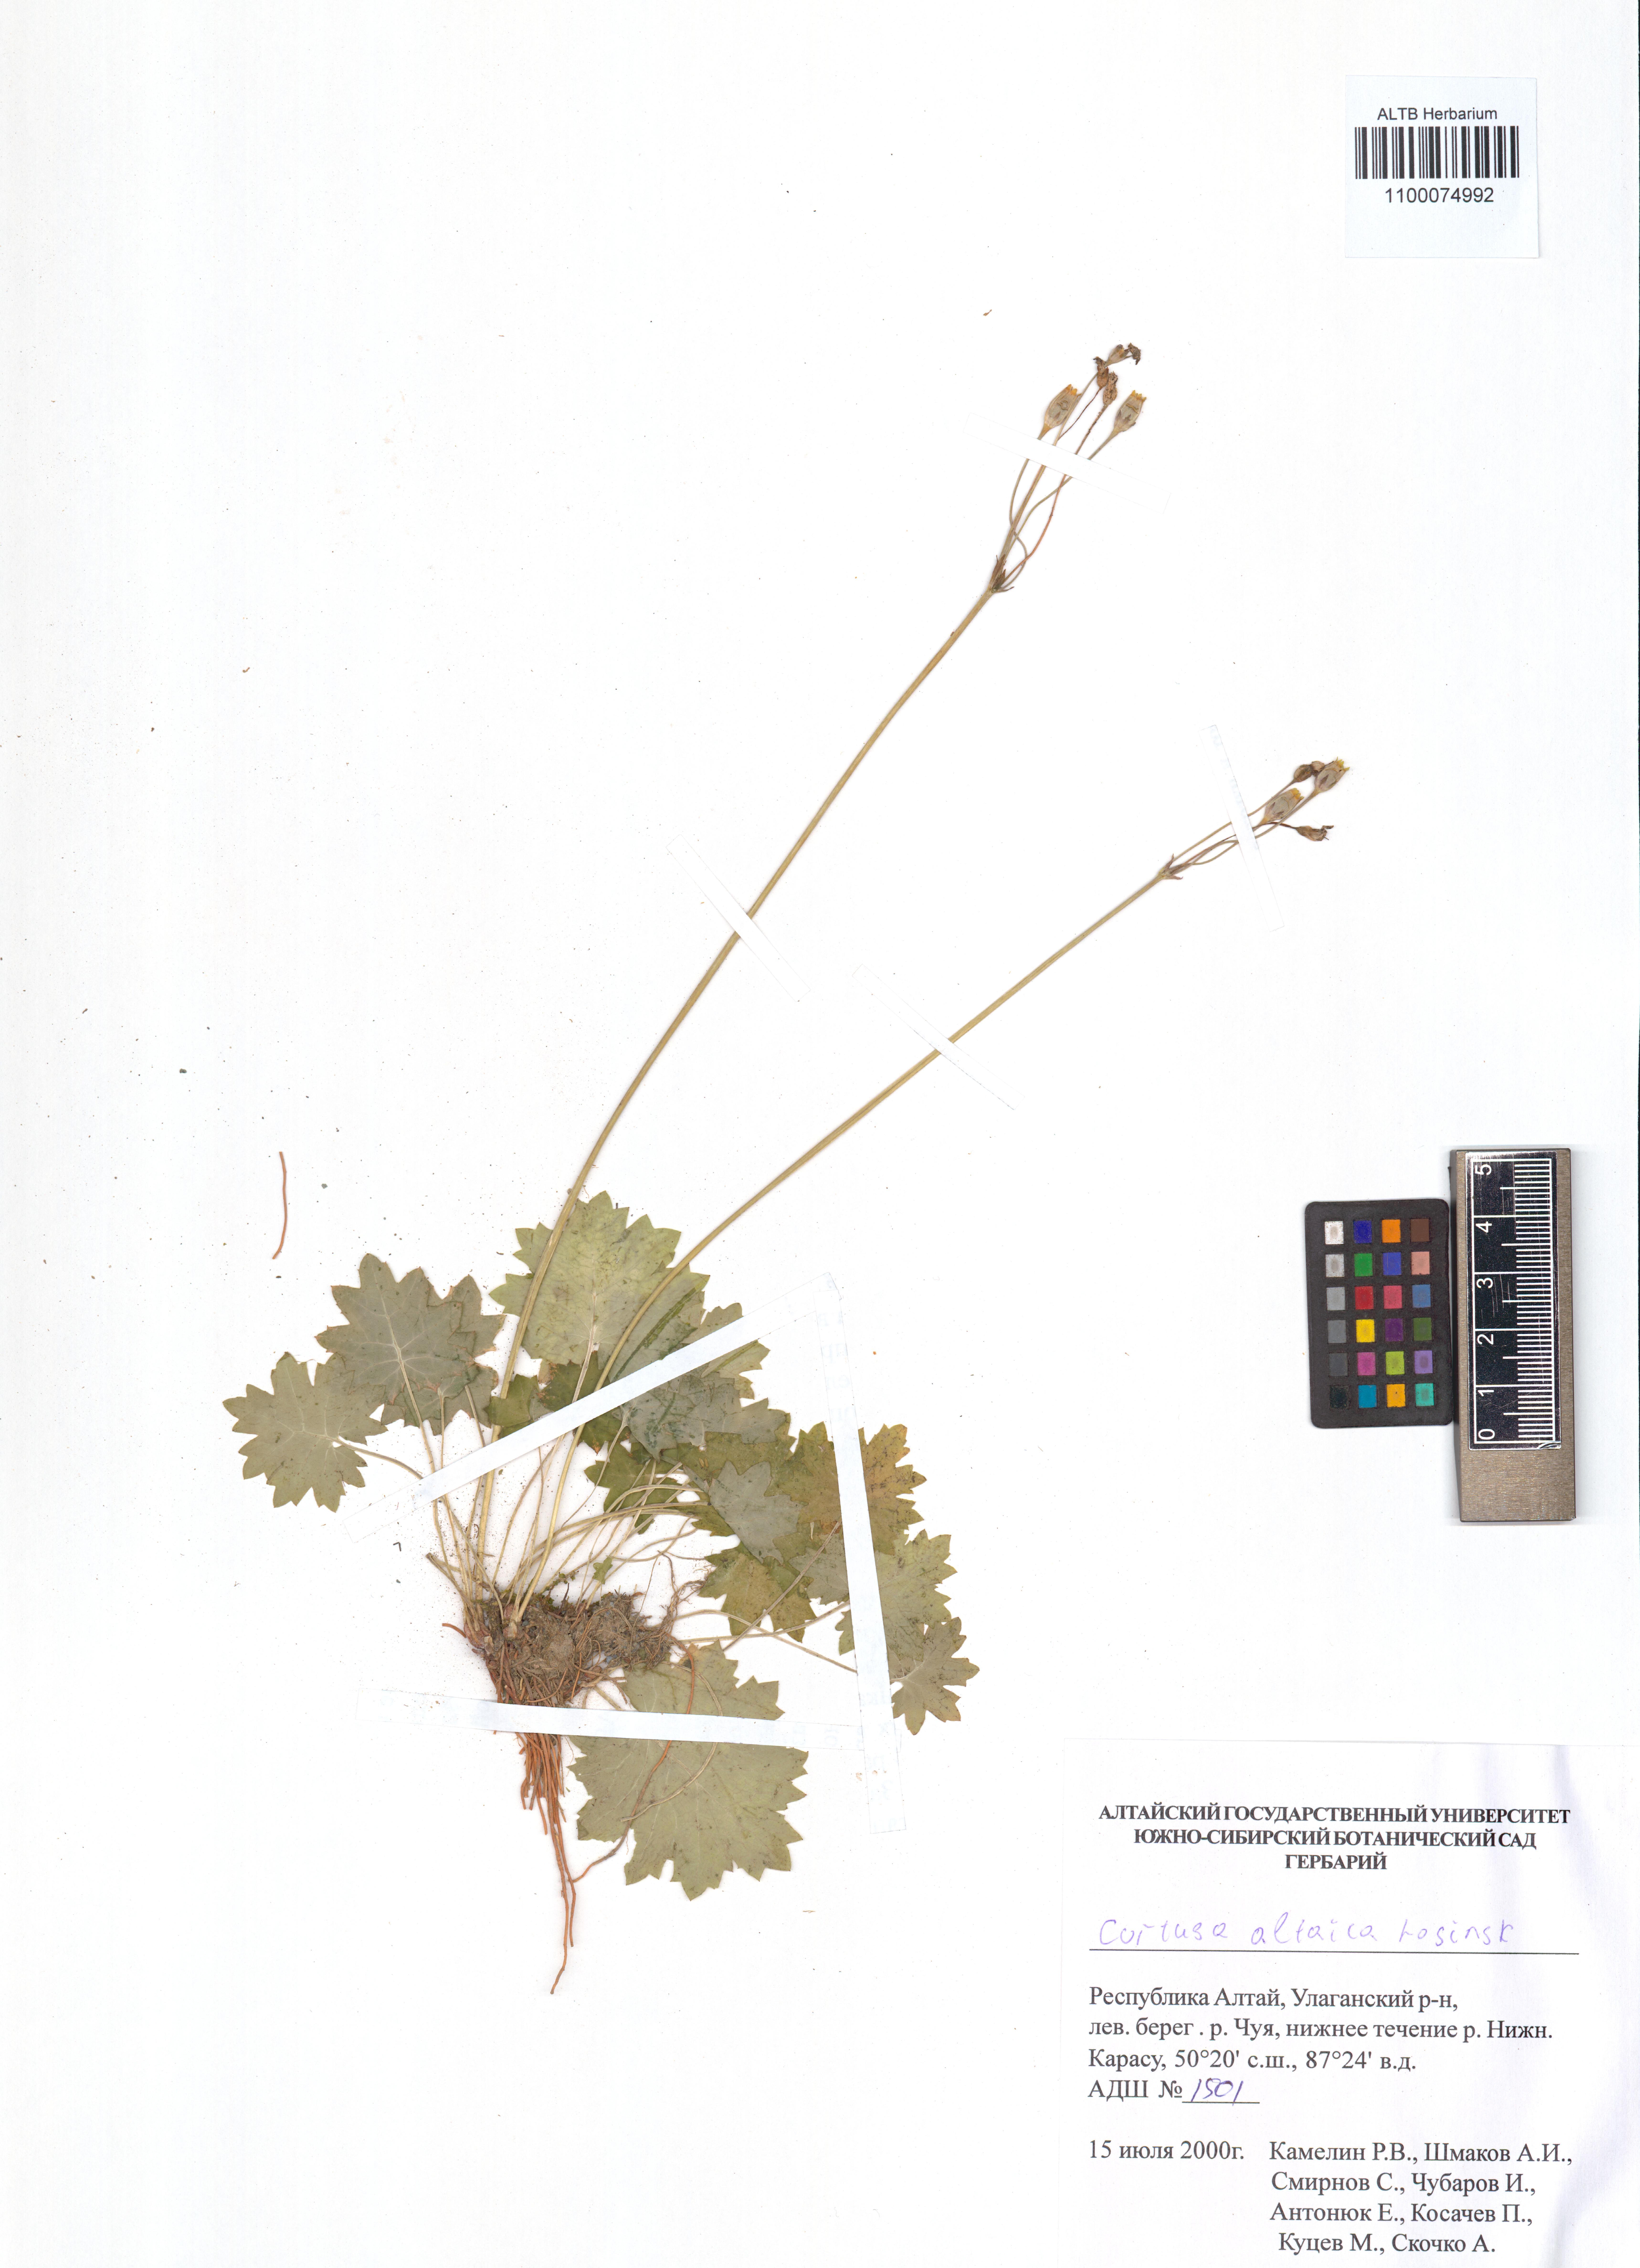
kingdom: Plantae
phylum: Tracheophyta
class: Magnoliopsida
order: Ericales
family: Primulaceae
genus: Primula
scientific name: Primula matthioli
